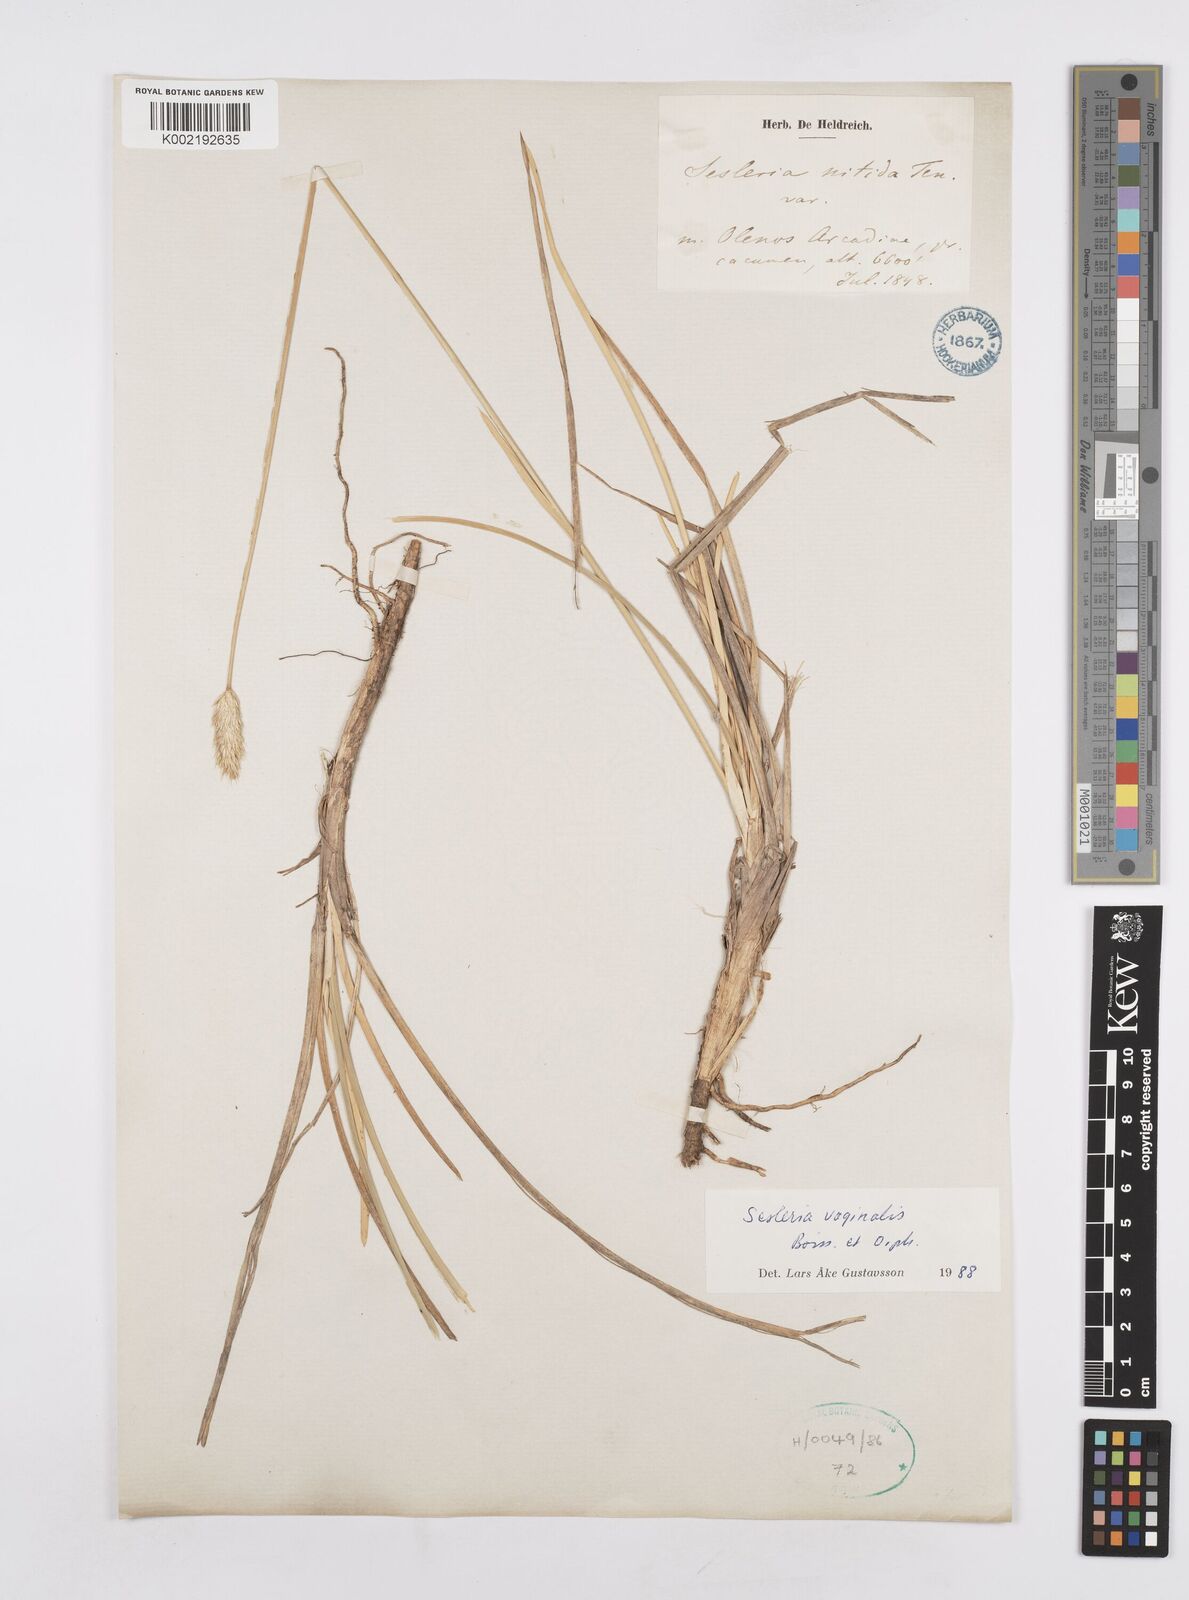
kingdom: Plantae
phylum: Tracheophyta
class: Liliopsida
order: Poales
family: Poaceae
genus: Sesleria
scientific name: Sesleria vaginalis
